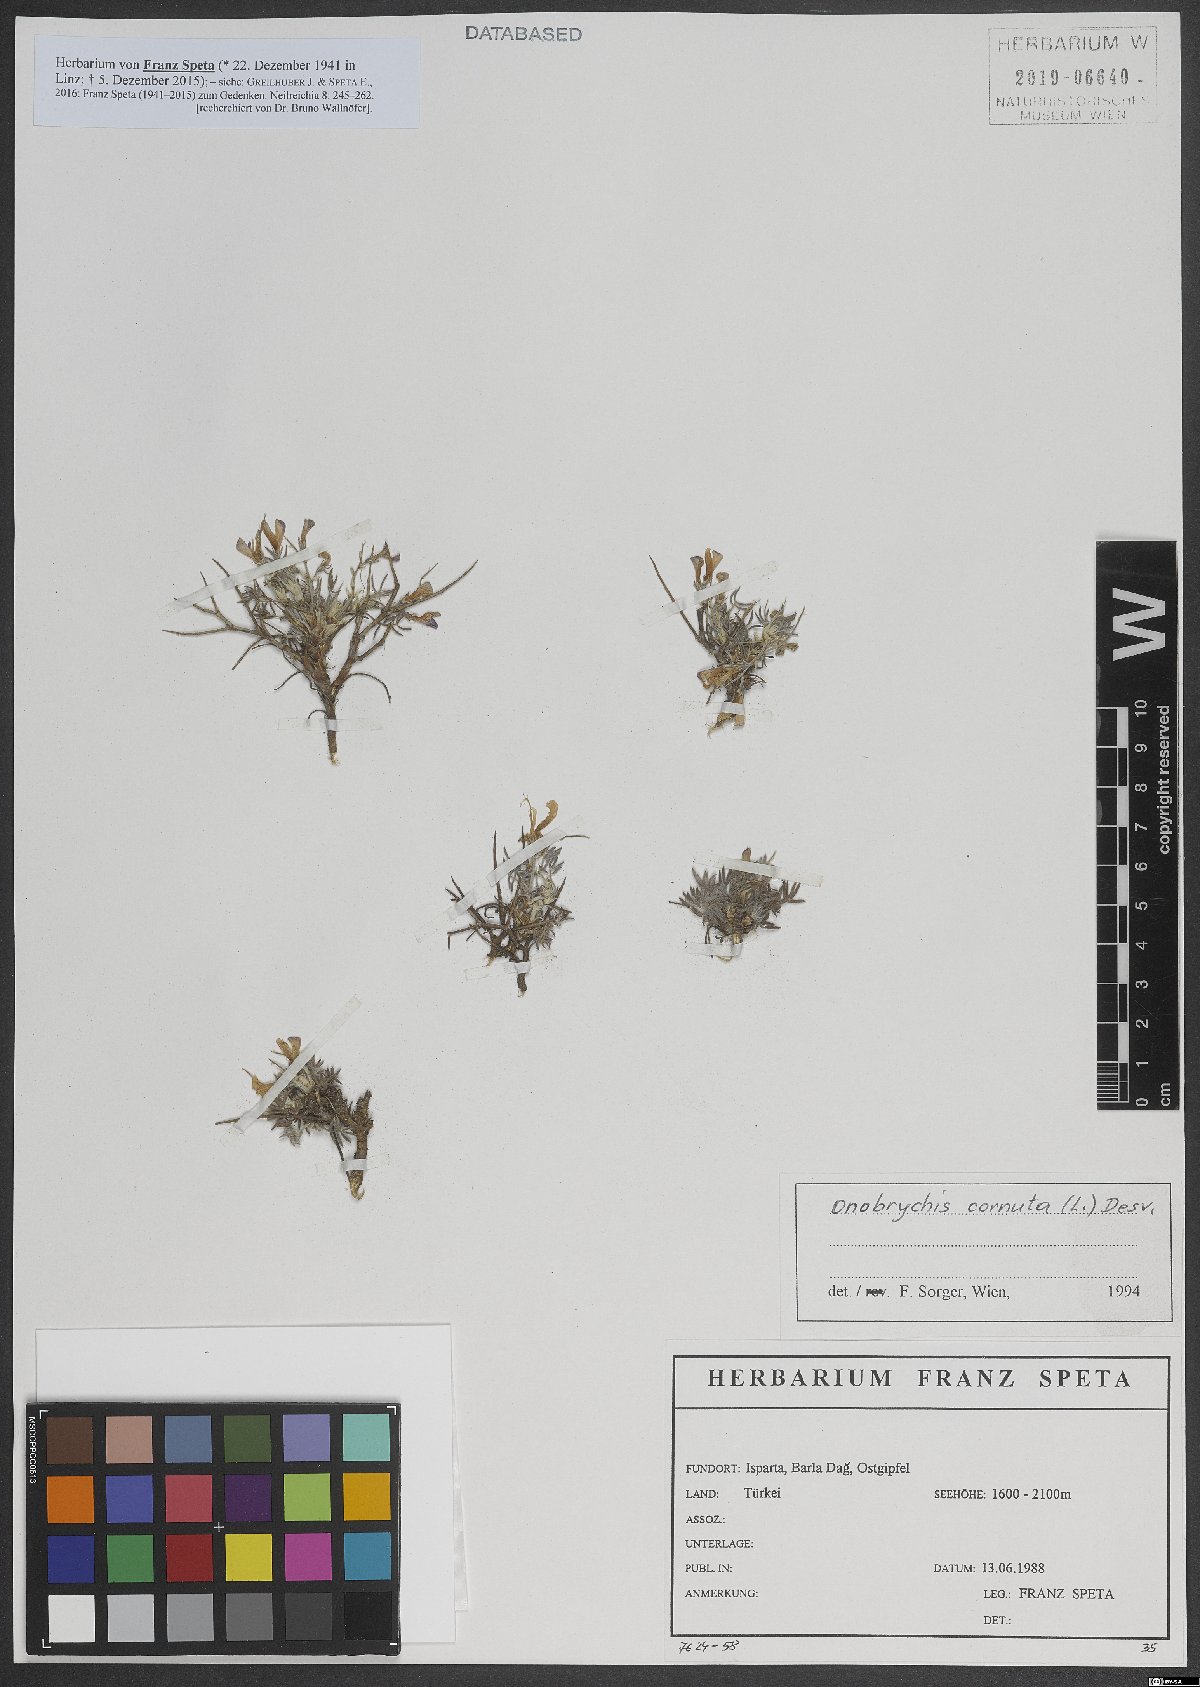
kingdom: Plantae
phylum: Tracheophyta
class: Magnoliopsida
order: Fabales
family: Fabaceae
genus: Onobrychis
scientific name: Onobrychis cornuta
